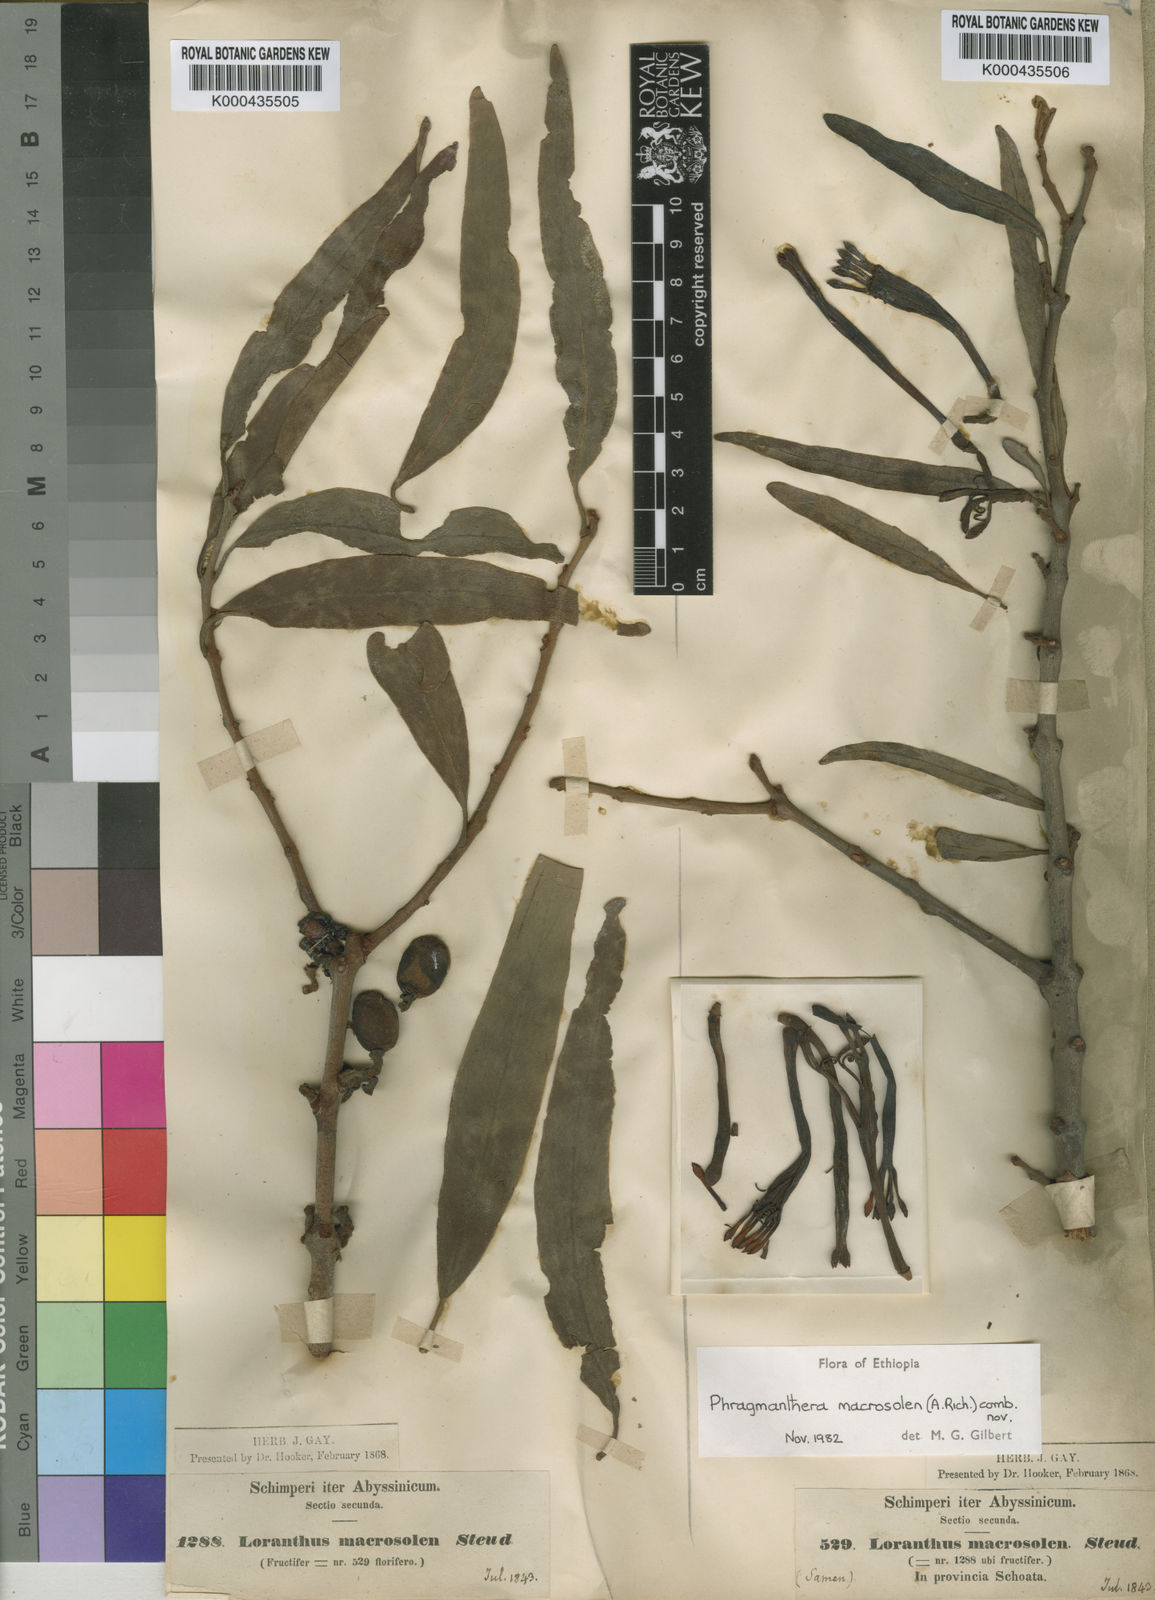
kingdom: Plantae
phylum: Tracheophyta
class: Magnoliopsida
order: Santalales
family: Loranthaceae
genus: Phragmanthera
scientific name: Phragmanthera macrosolen
